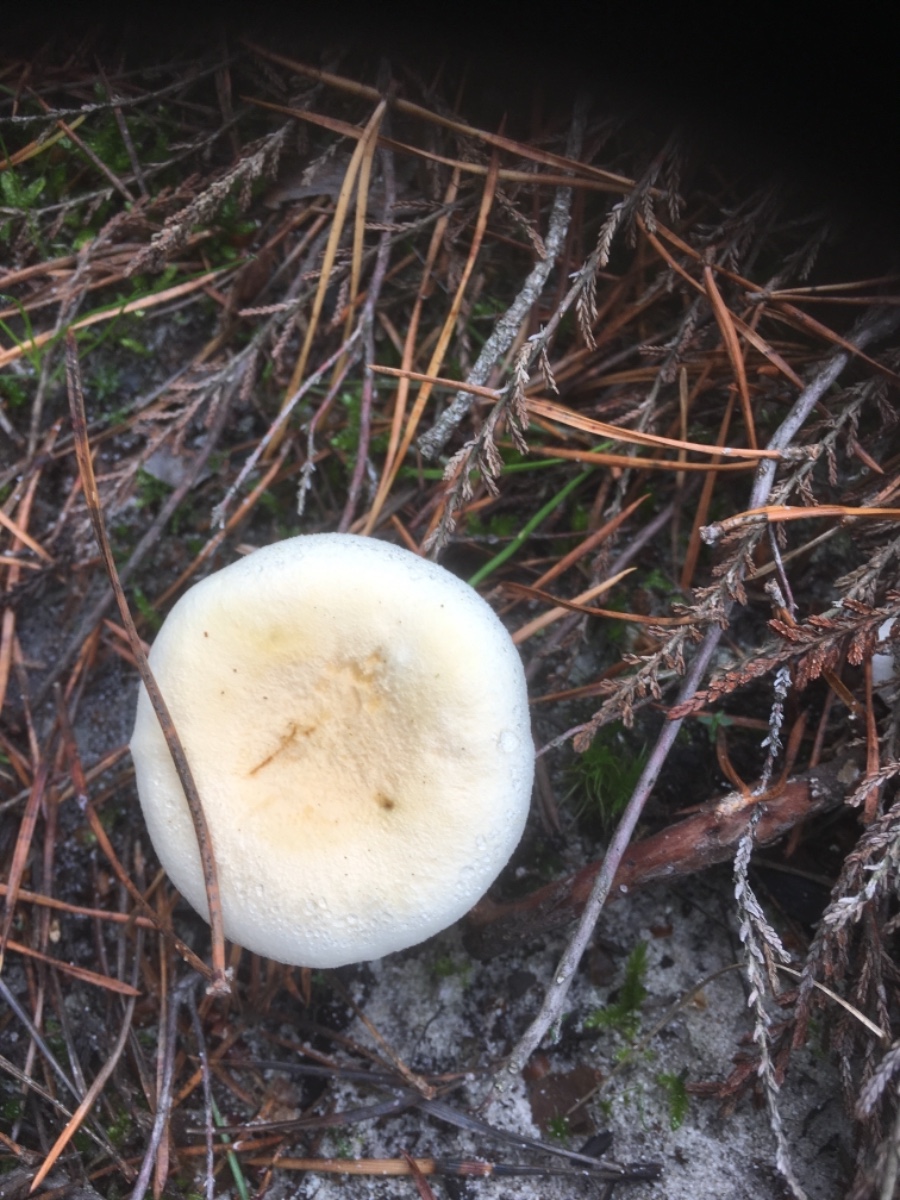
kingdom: Fungi
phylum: Basidiomycota
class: Agaricomycetes
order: Boletales
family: Hygrophoropsidaceae
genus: Hygrophoropsis
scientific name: Hygrophoropsis pallida
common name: bleg orangekantarel
